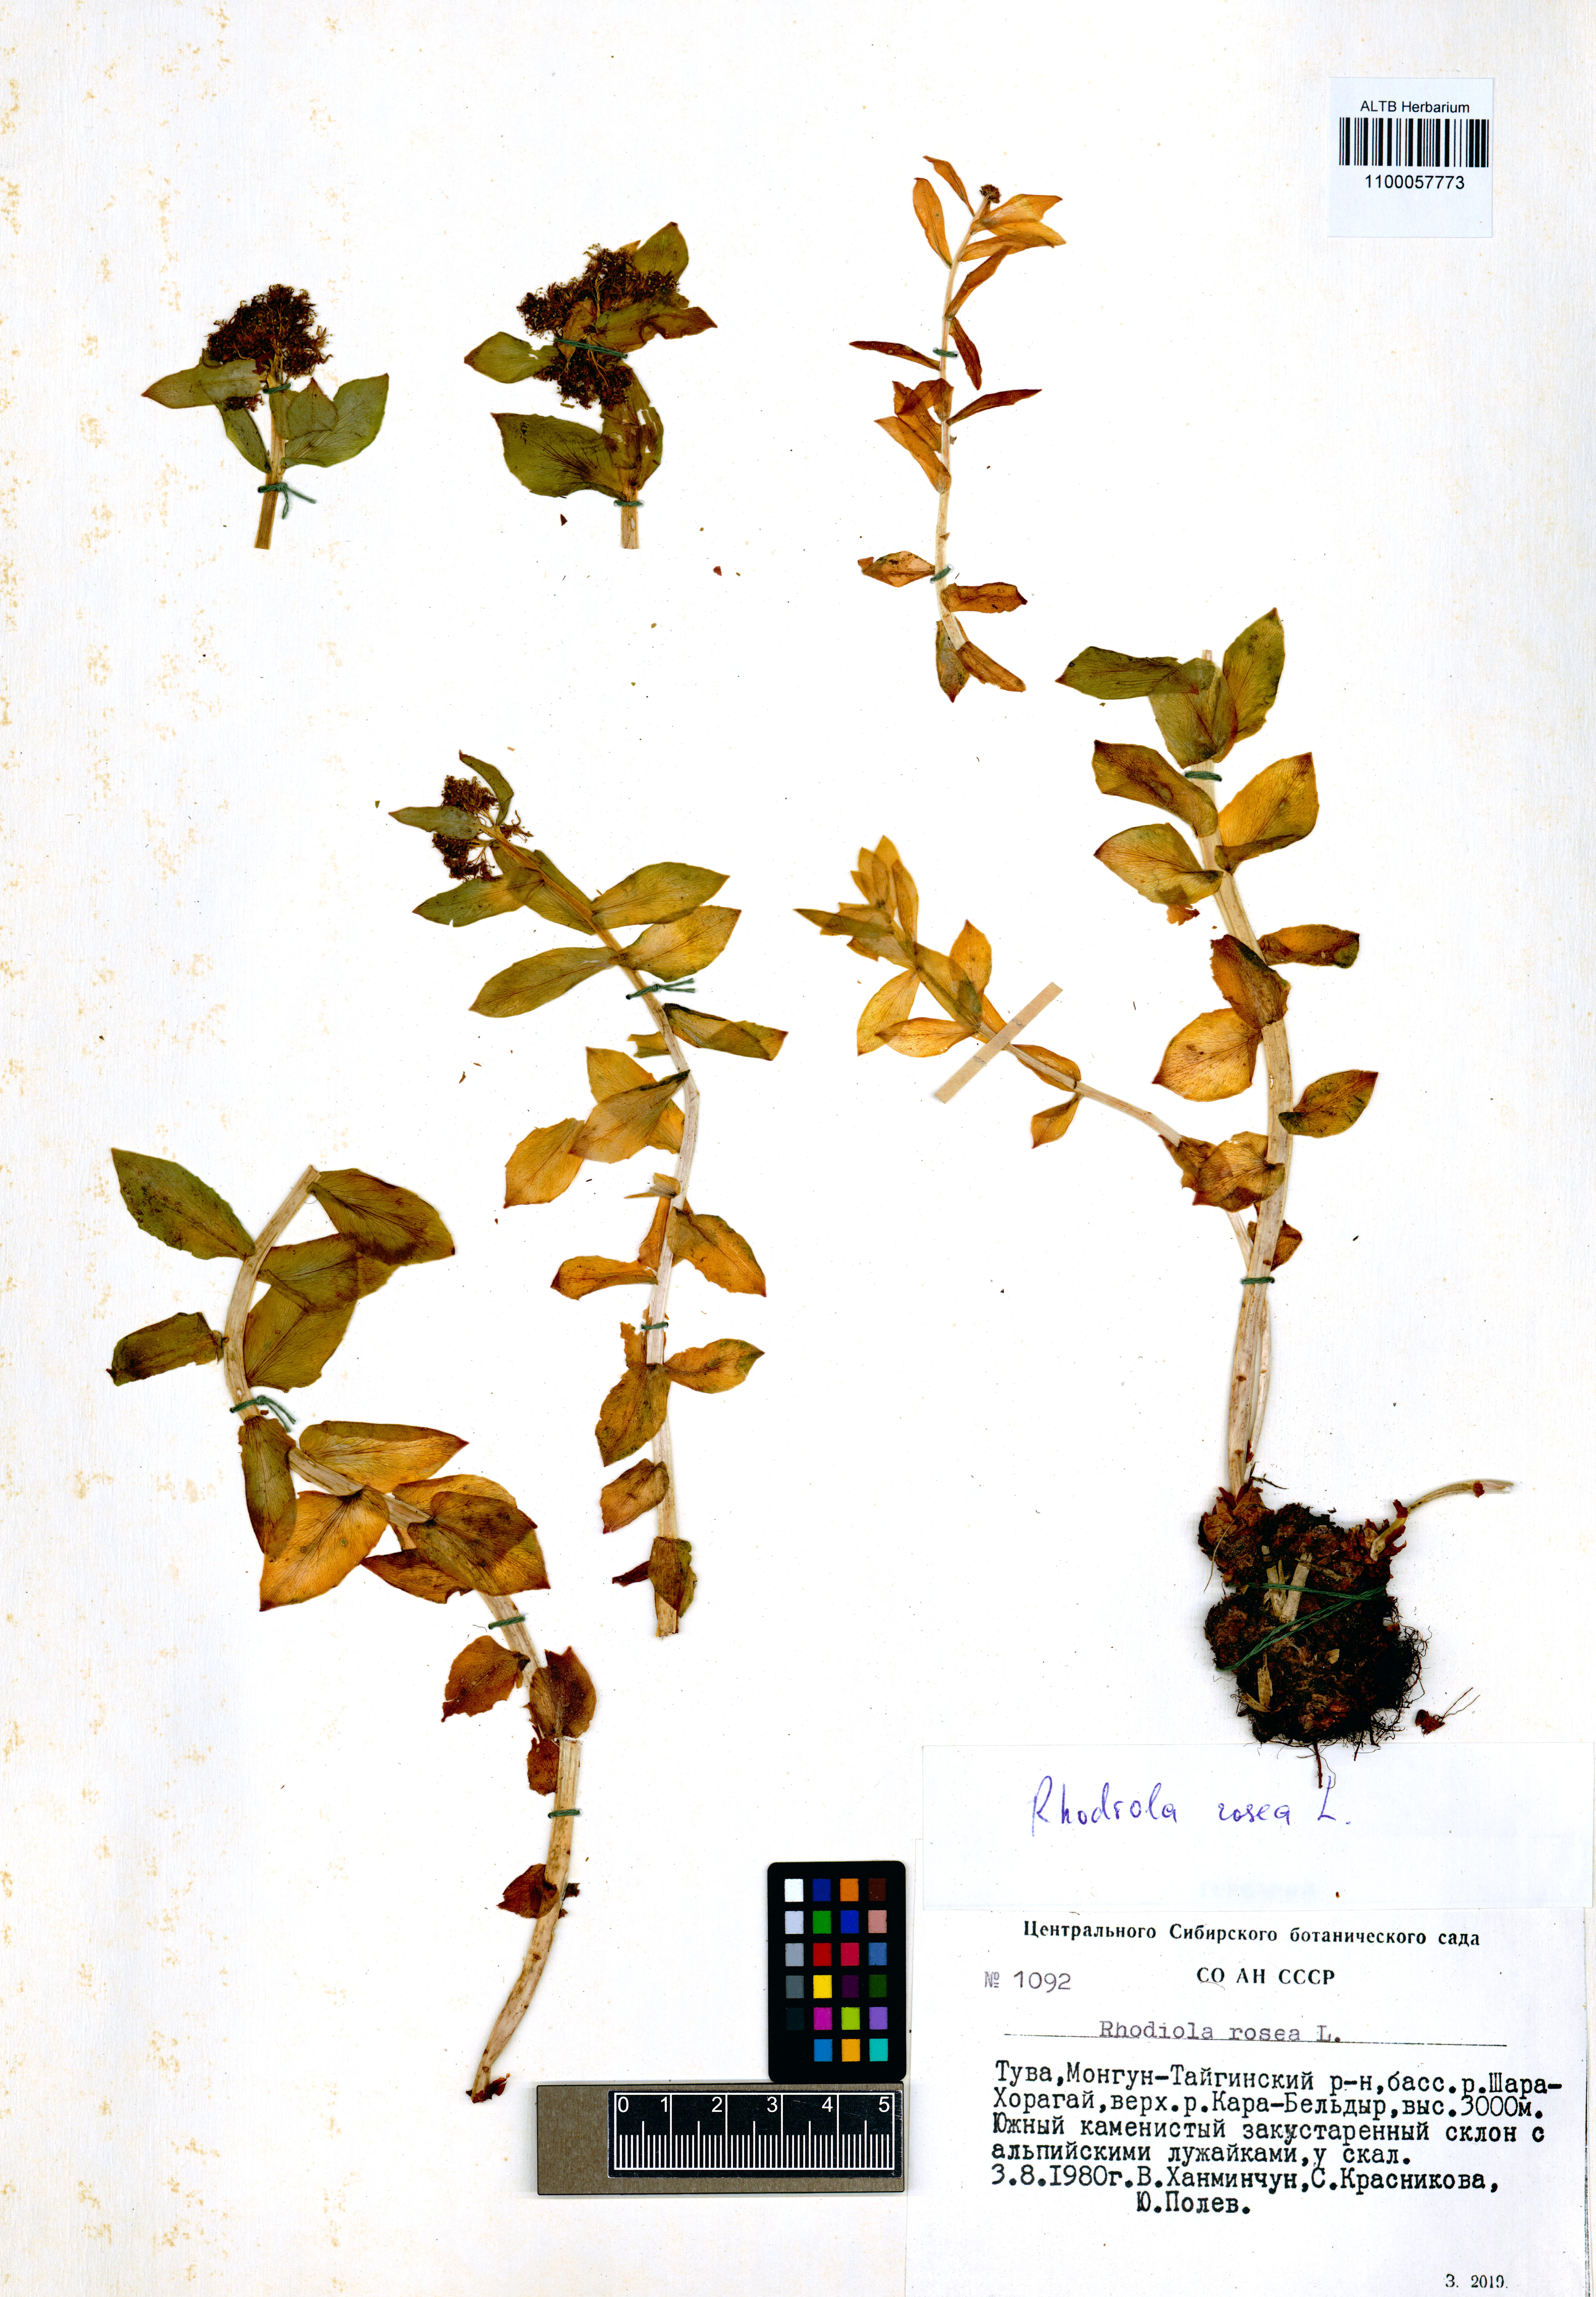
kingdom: Plantae
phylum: Tracheophyta
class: Magnoliopsida
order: Saxifragales
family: Crassulaceae
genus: Rhodiola
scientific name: Rhodiola rosea
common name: Roseroot
